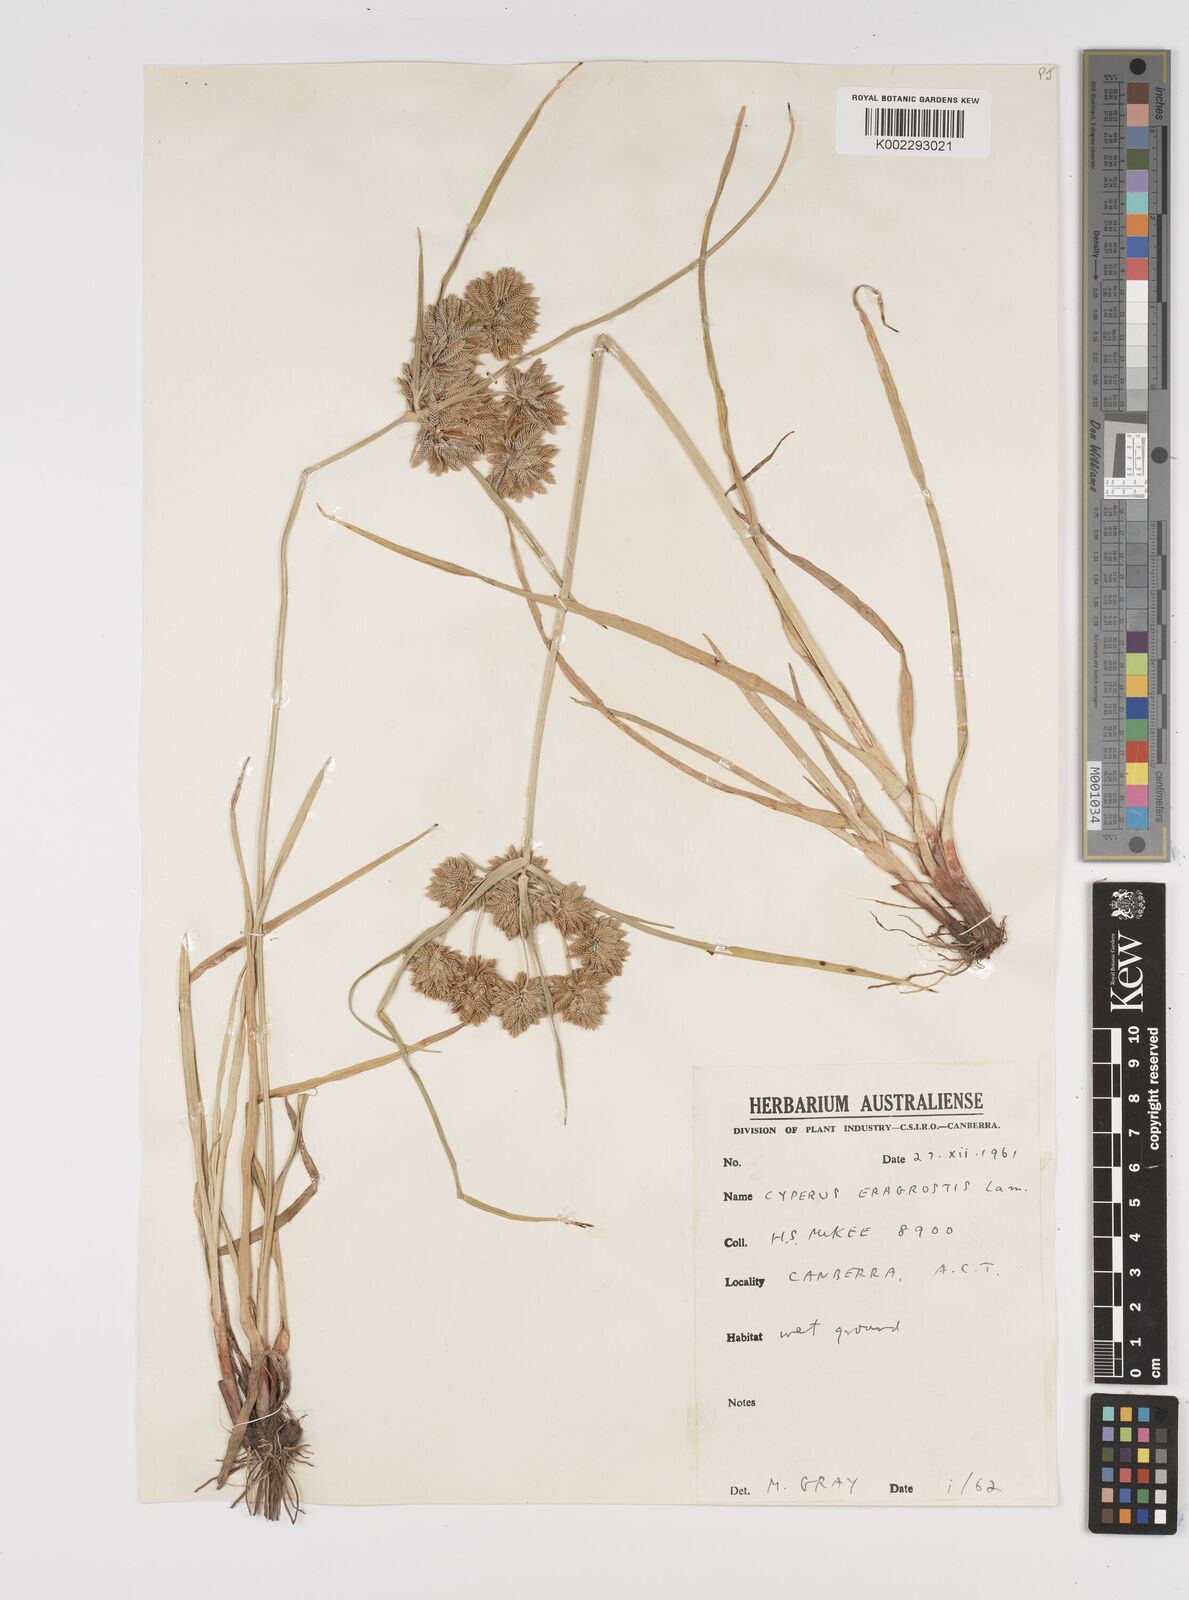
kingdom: Plantae
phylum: Tracheophyta
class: Liliopsida
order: Poales
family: Cyperaceae
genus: Cyperus
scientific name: Cyperus eragrostis
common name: Tall flatsedge
